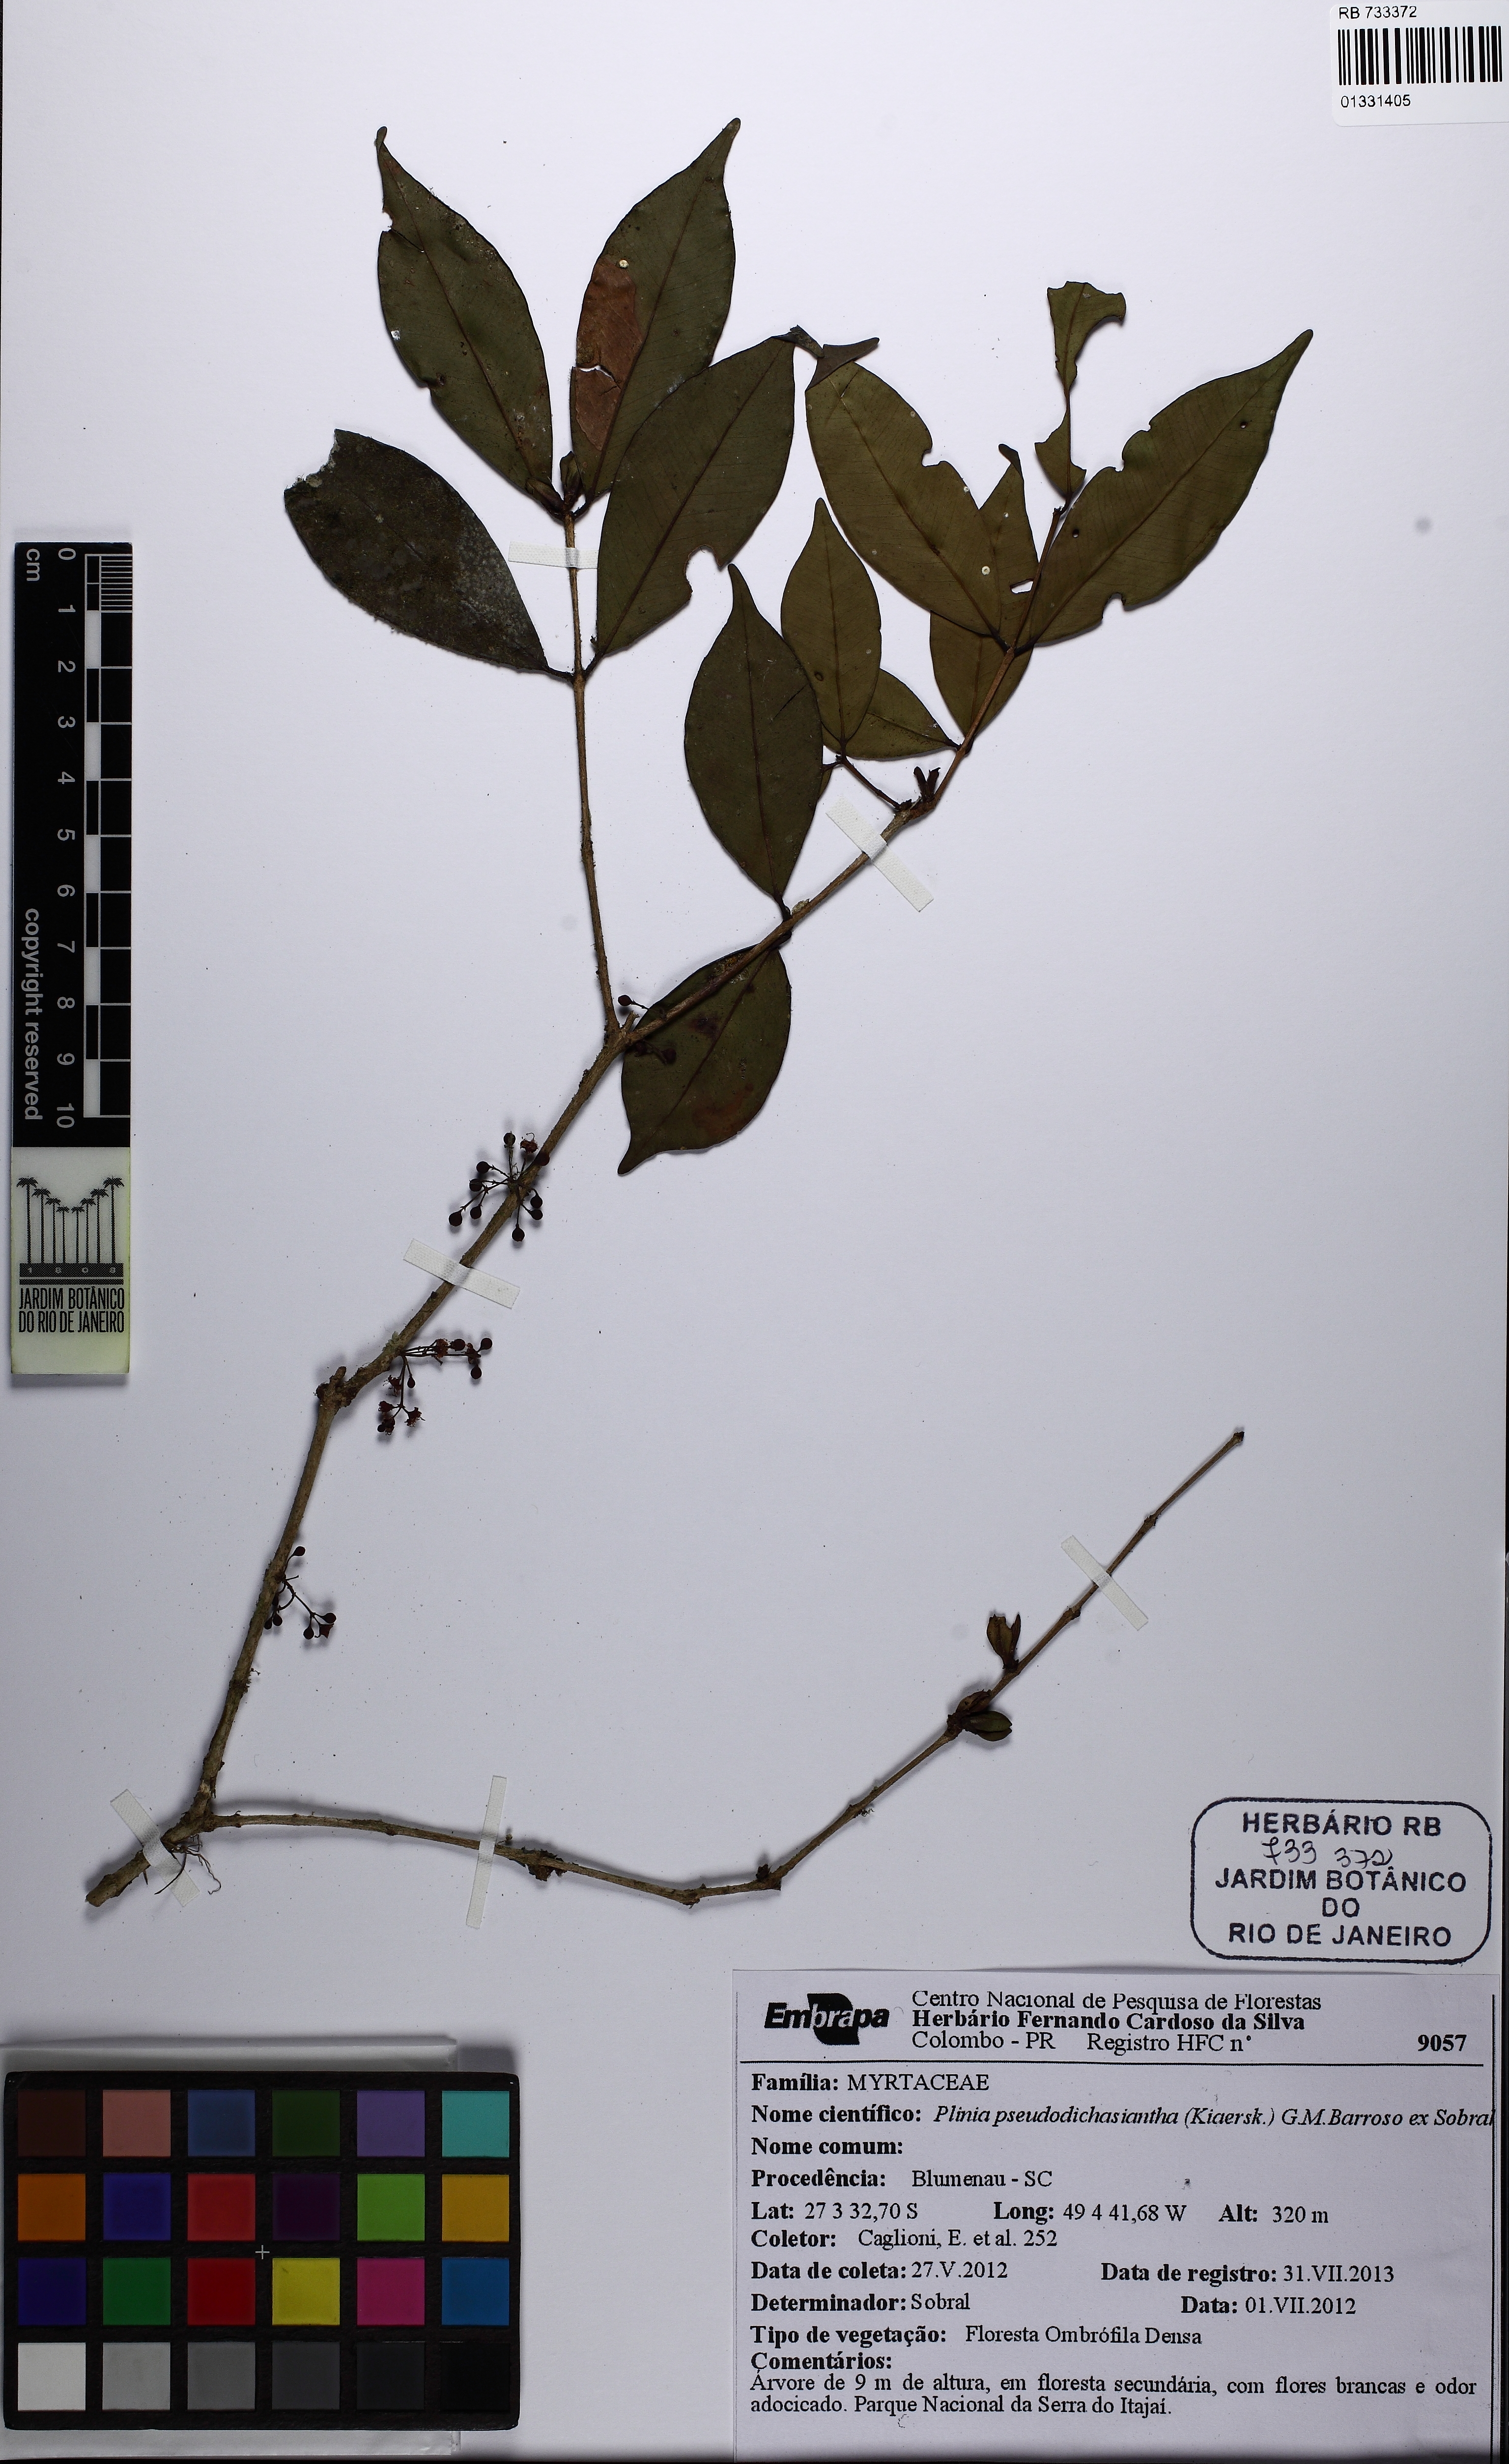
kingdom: Plantae
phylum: Tracheophyta
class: Magnoliopsida
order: Myrtales
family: Myrtaceae
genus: Plinia
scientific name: Plinia pseudodichasiantha
